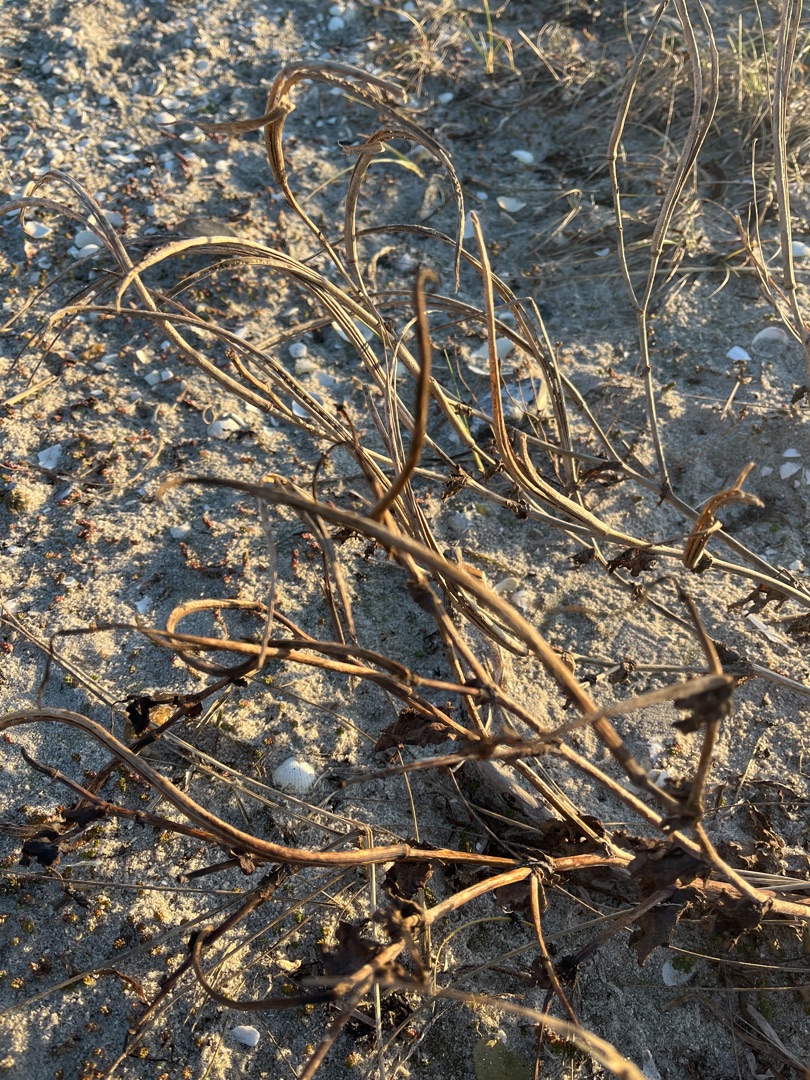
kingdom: Plantae
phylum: Tracheophyta
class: Magnoliopsida
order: Ranunculales
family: Papaveraceae
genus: Glaucium
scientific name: Glaucium flavum
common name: Hornskulpe
